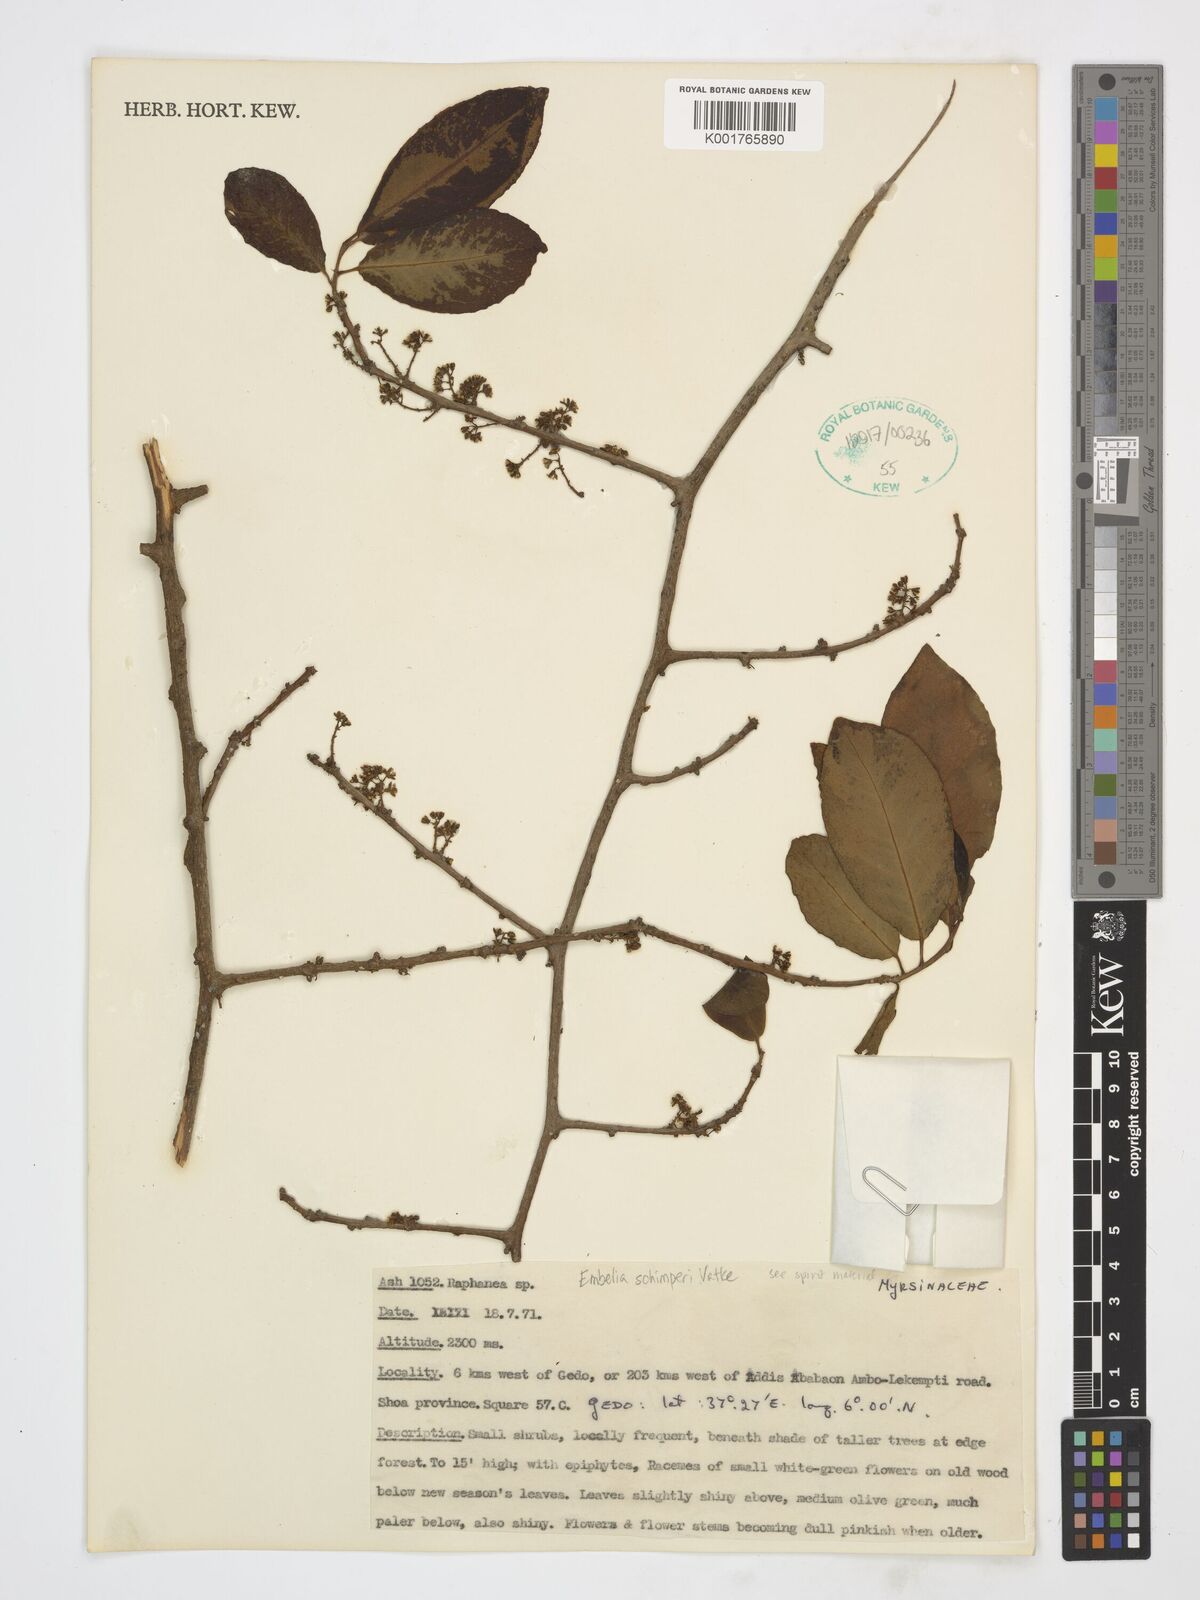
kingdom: Plantae
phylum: Tracheophyta
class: Magnoliopsida
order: Ericales
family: Primulaceae
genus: Embelia
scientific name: Embelia schimperi
